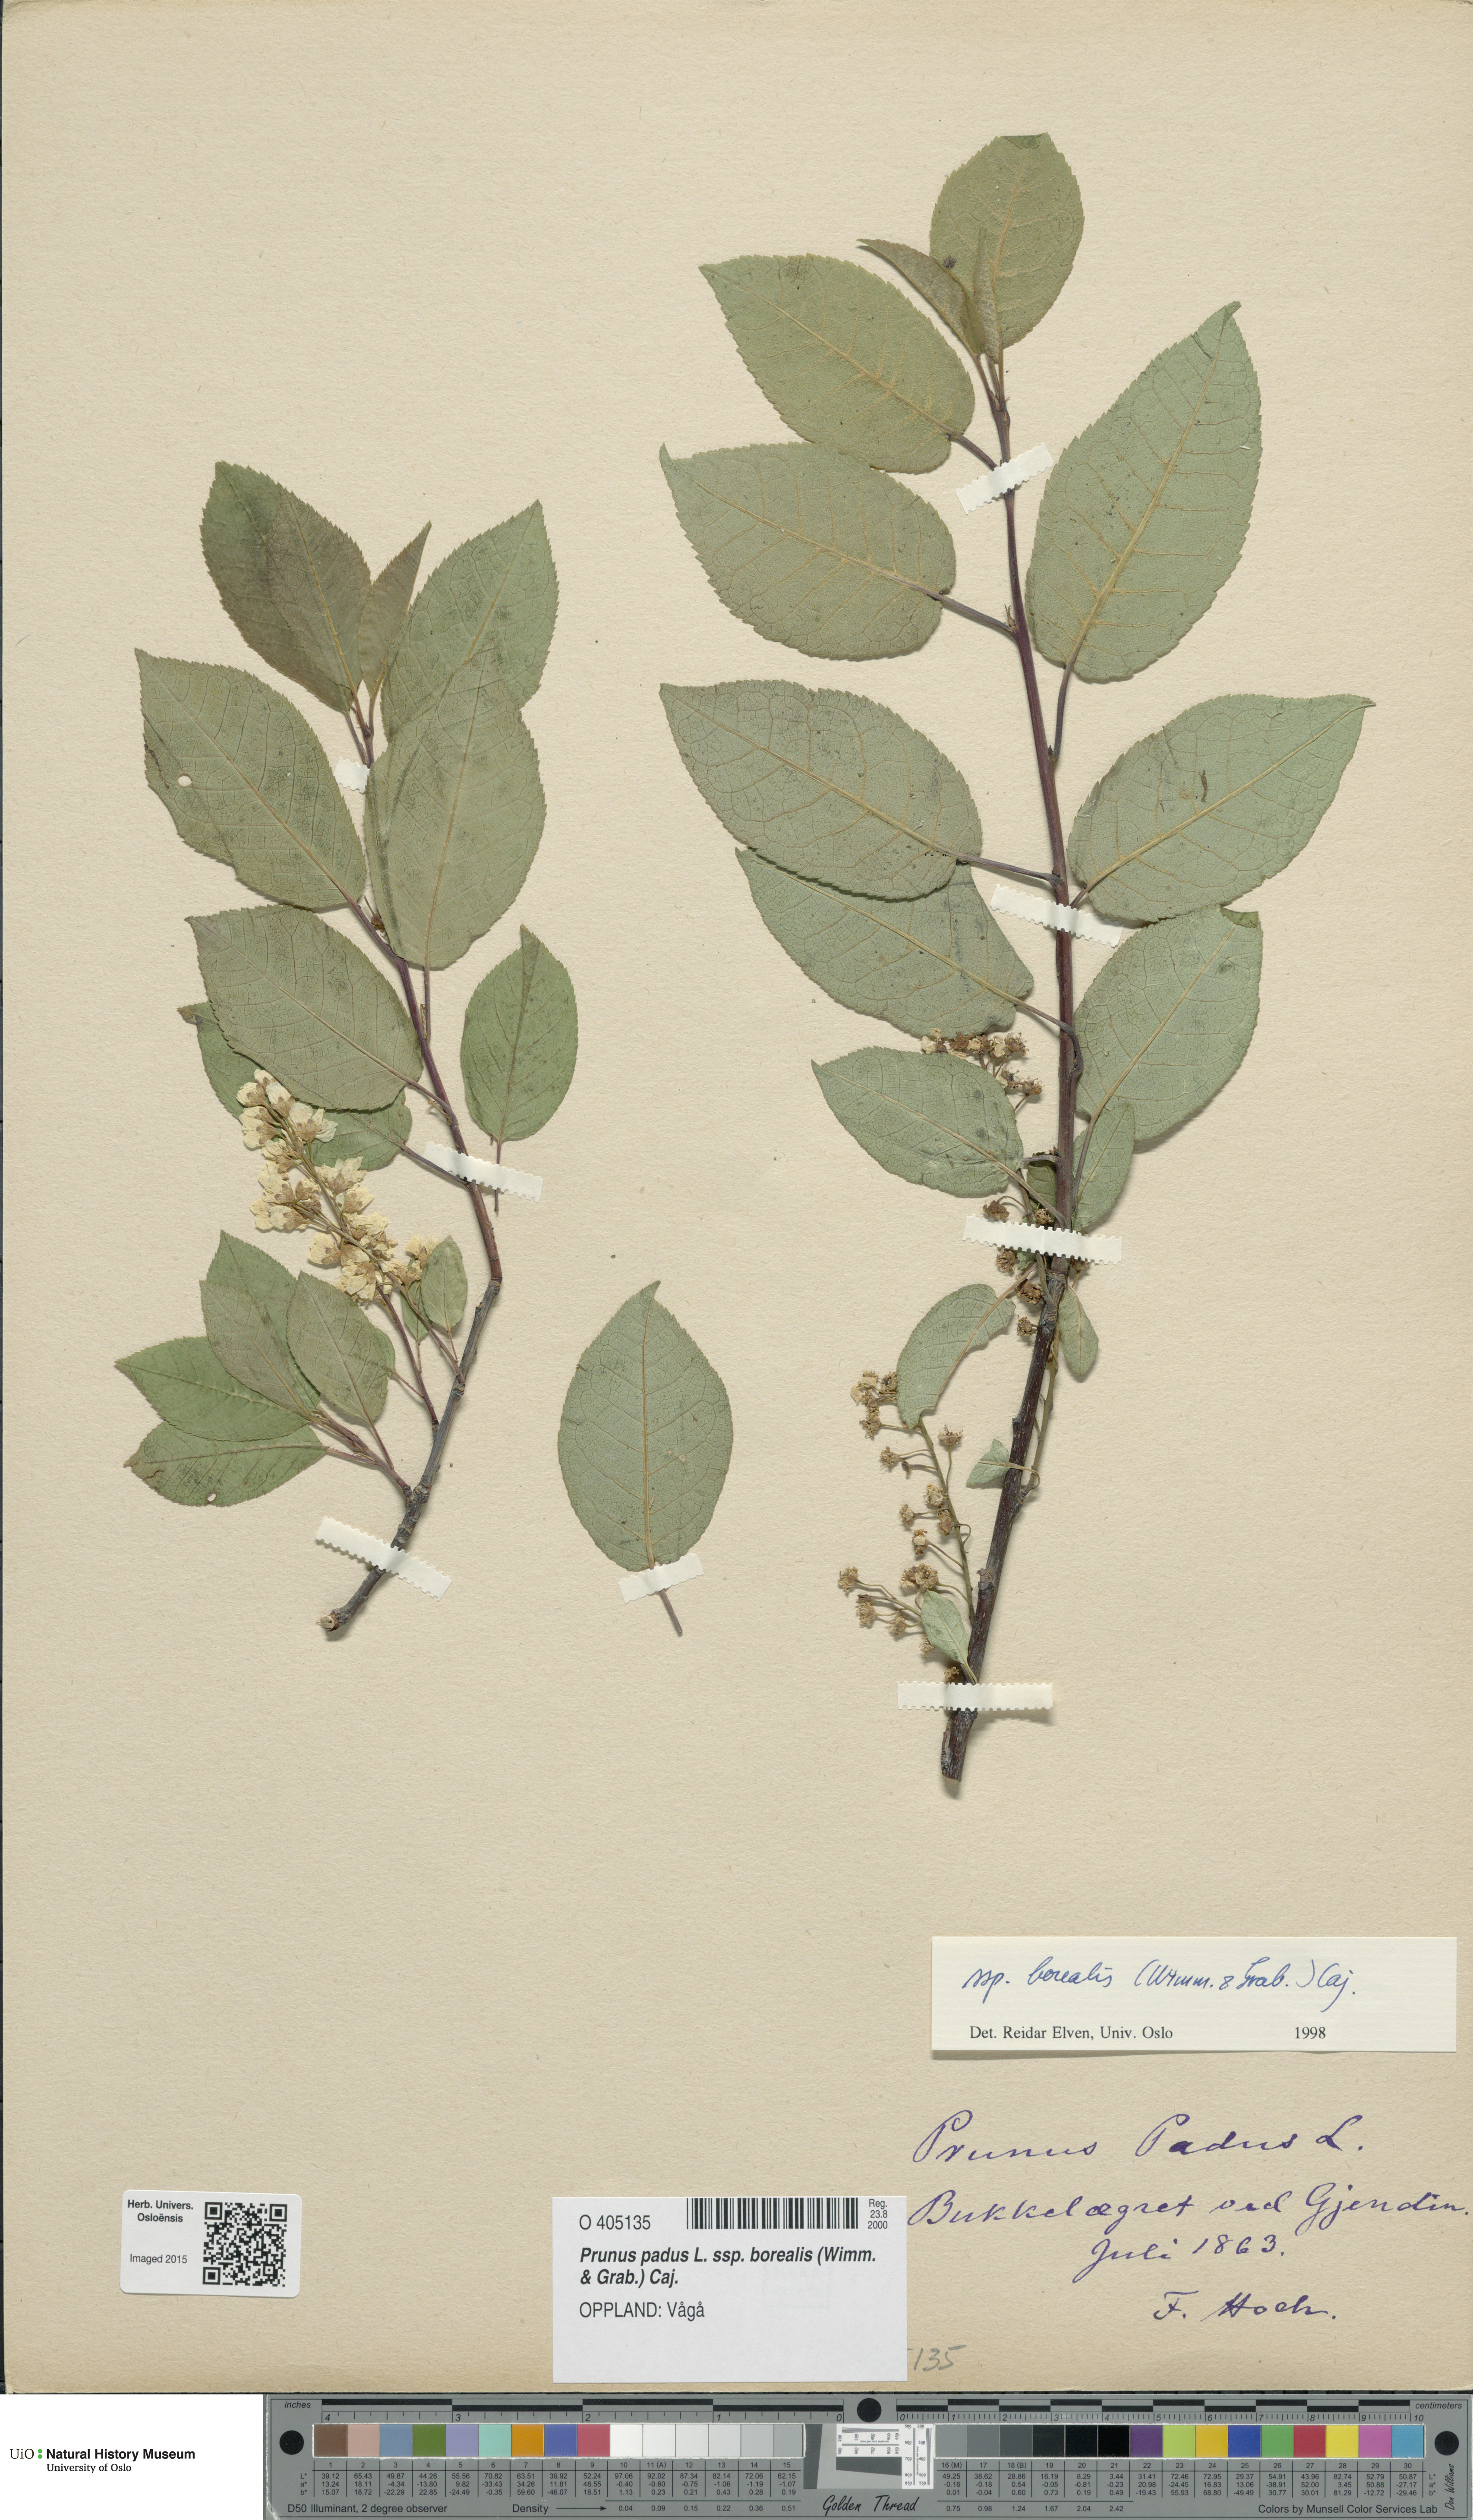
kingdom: Plantae
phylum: Tracheophyta
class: Magnoliopsida
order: Rosales
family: Rosaceae
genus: Prunus
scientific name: Prunus padus
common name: Bird cherry
